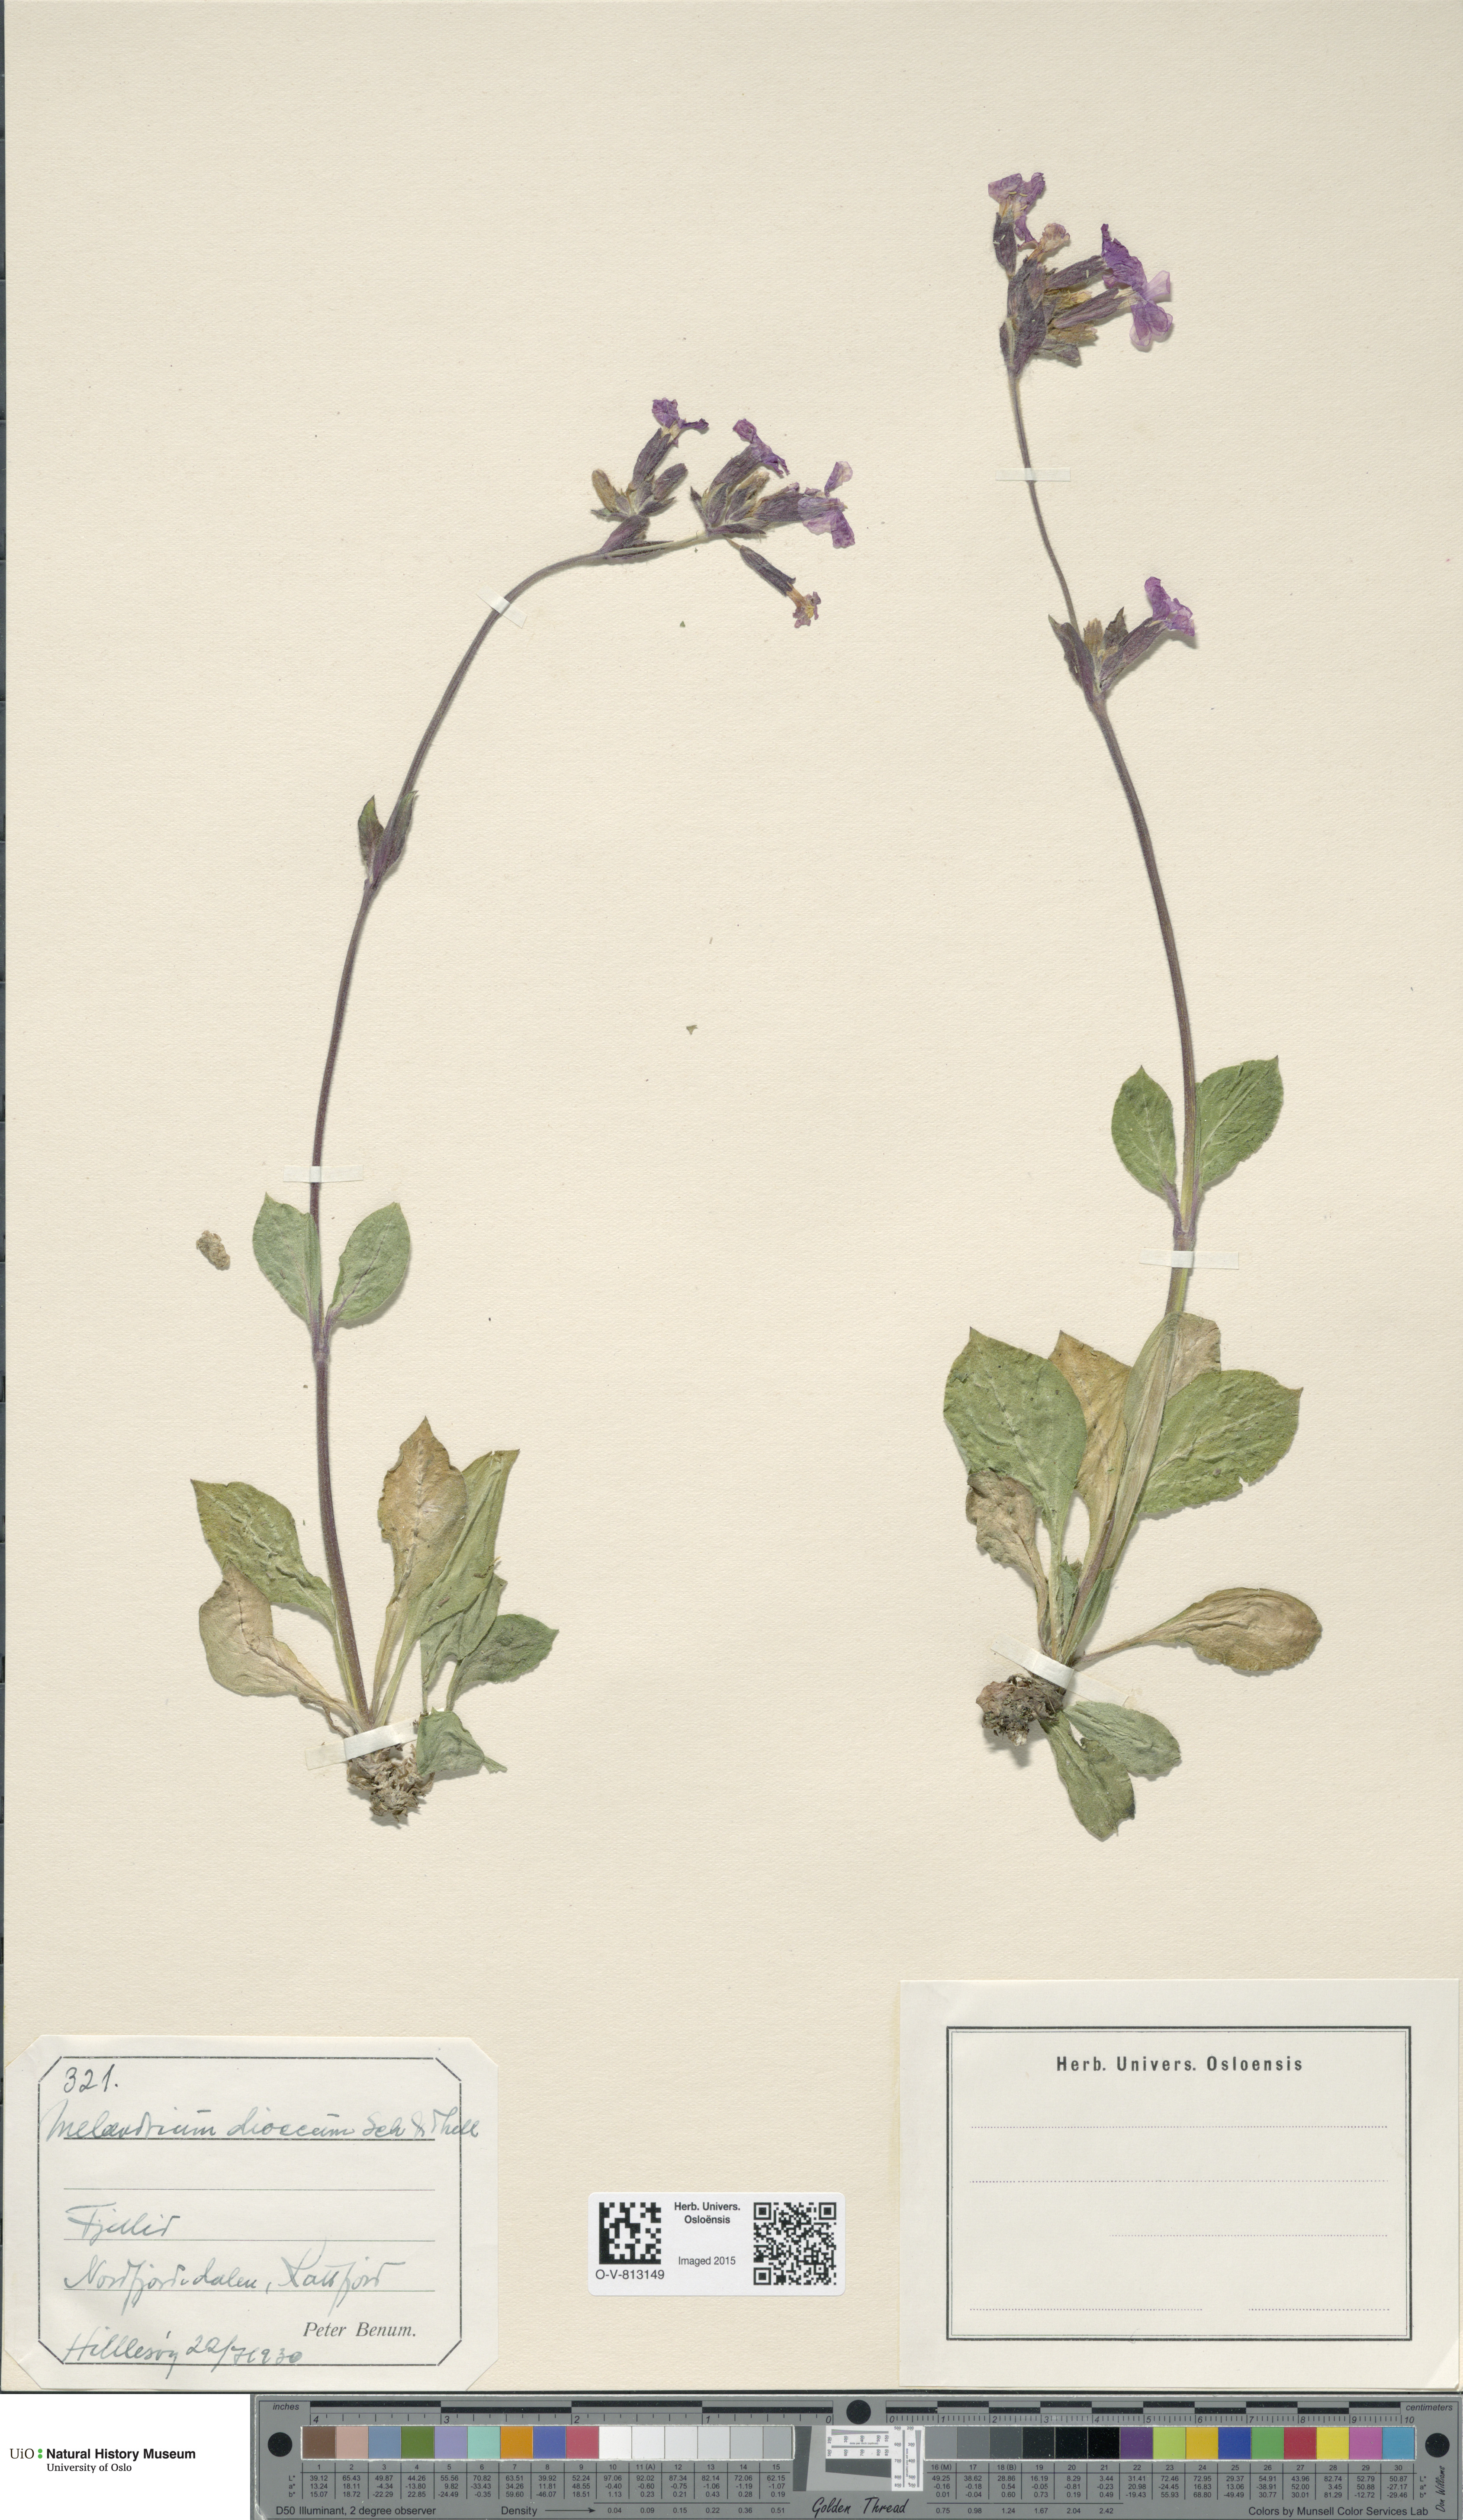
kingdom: Plantae
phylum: Tracheophyta
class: Magnoliopsida
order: Caryophyllales
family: Caryophyllaceae
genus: Silene
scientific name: Silene dioica
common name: Red campion
